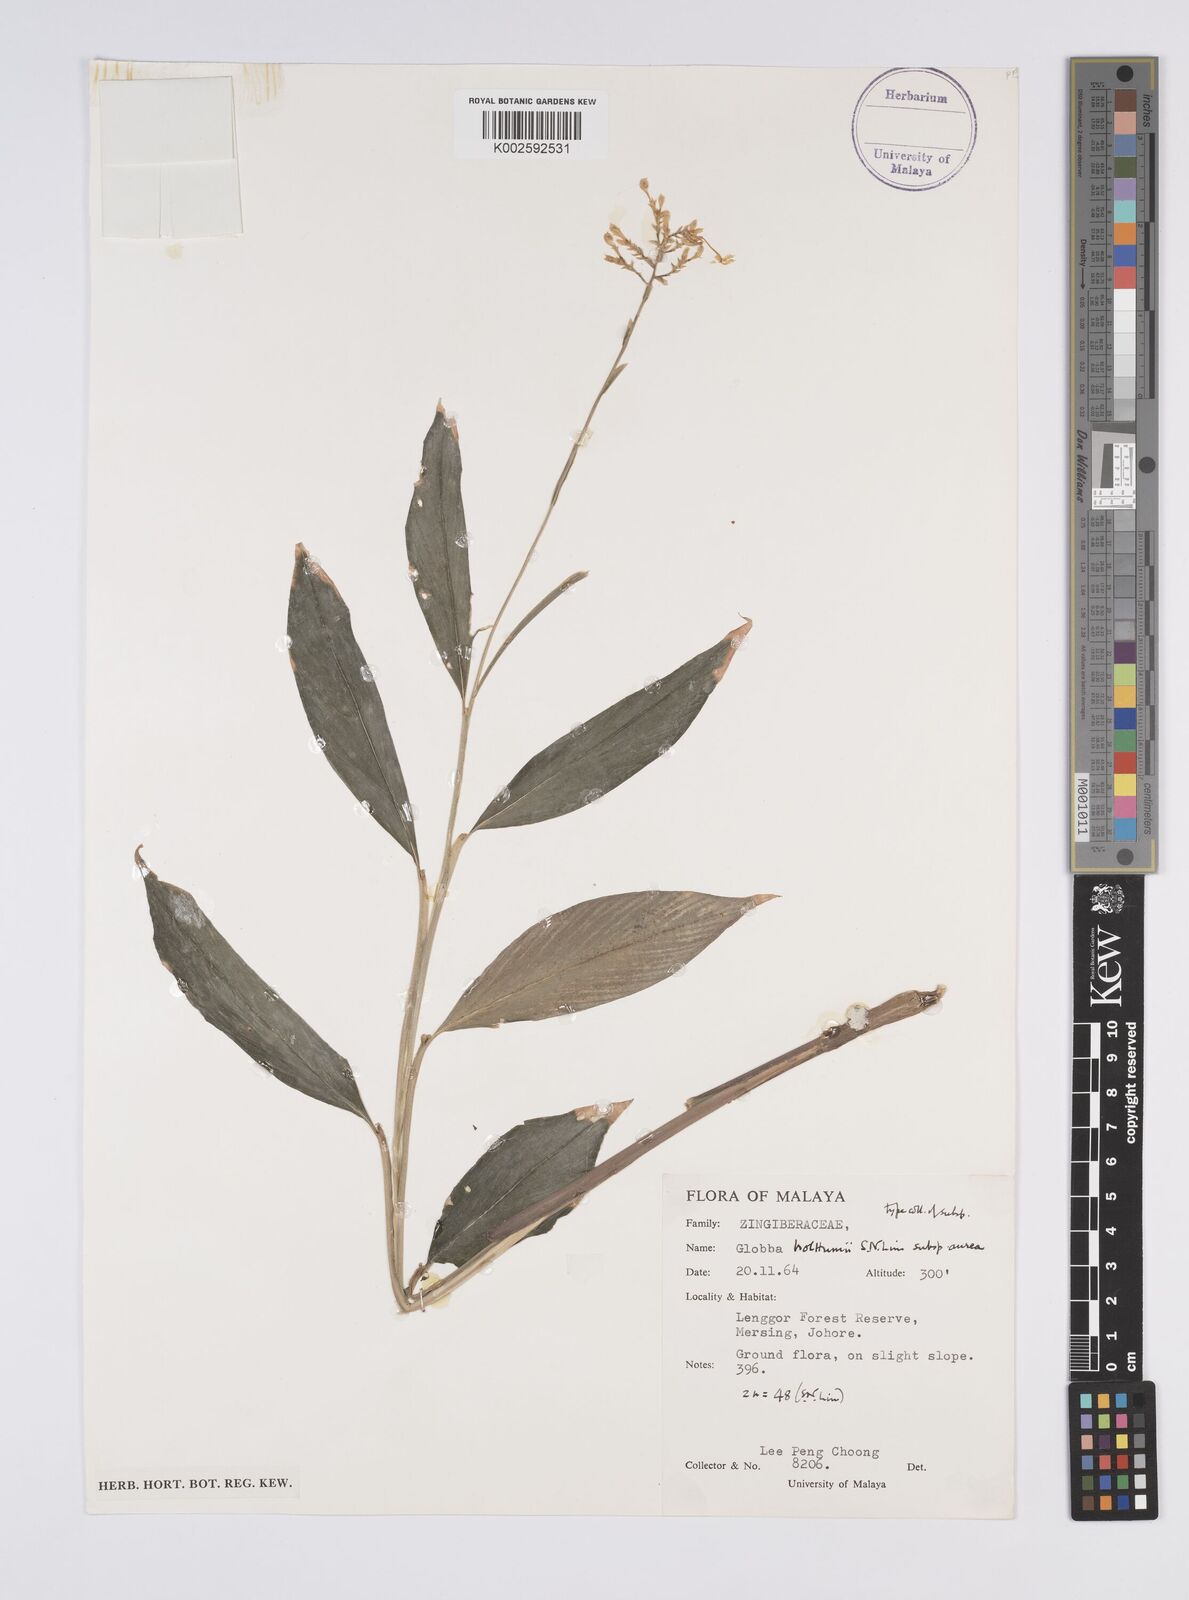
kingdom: Plantae
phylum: Tracheophyta
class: Liliopsida
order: Zingiberales
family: Zingiberaceae
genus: Globba
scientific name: Globba holttumii
